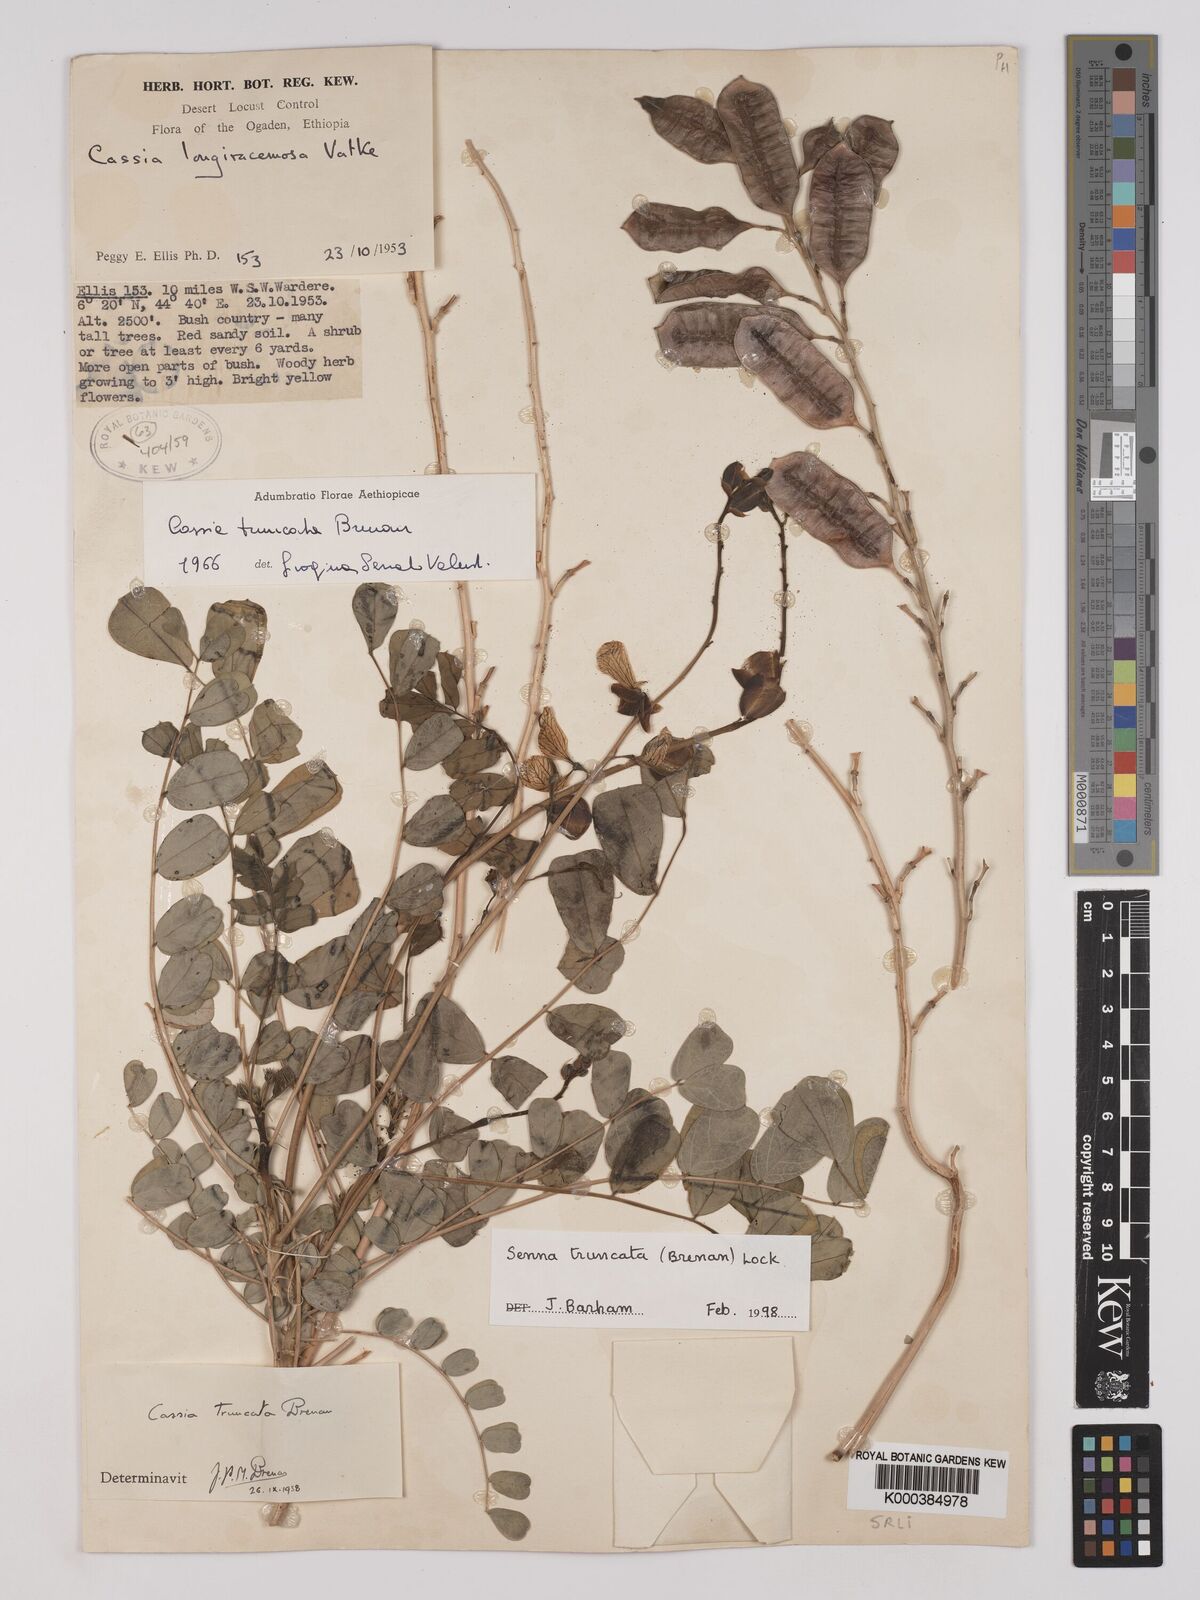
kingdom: Plantae
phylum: Tracheophyta
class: Magnoliopsida
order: Fabales
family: Fabaceae
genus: Senna
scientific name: Senna truncata
